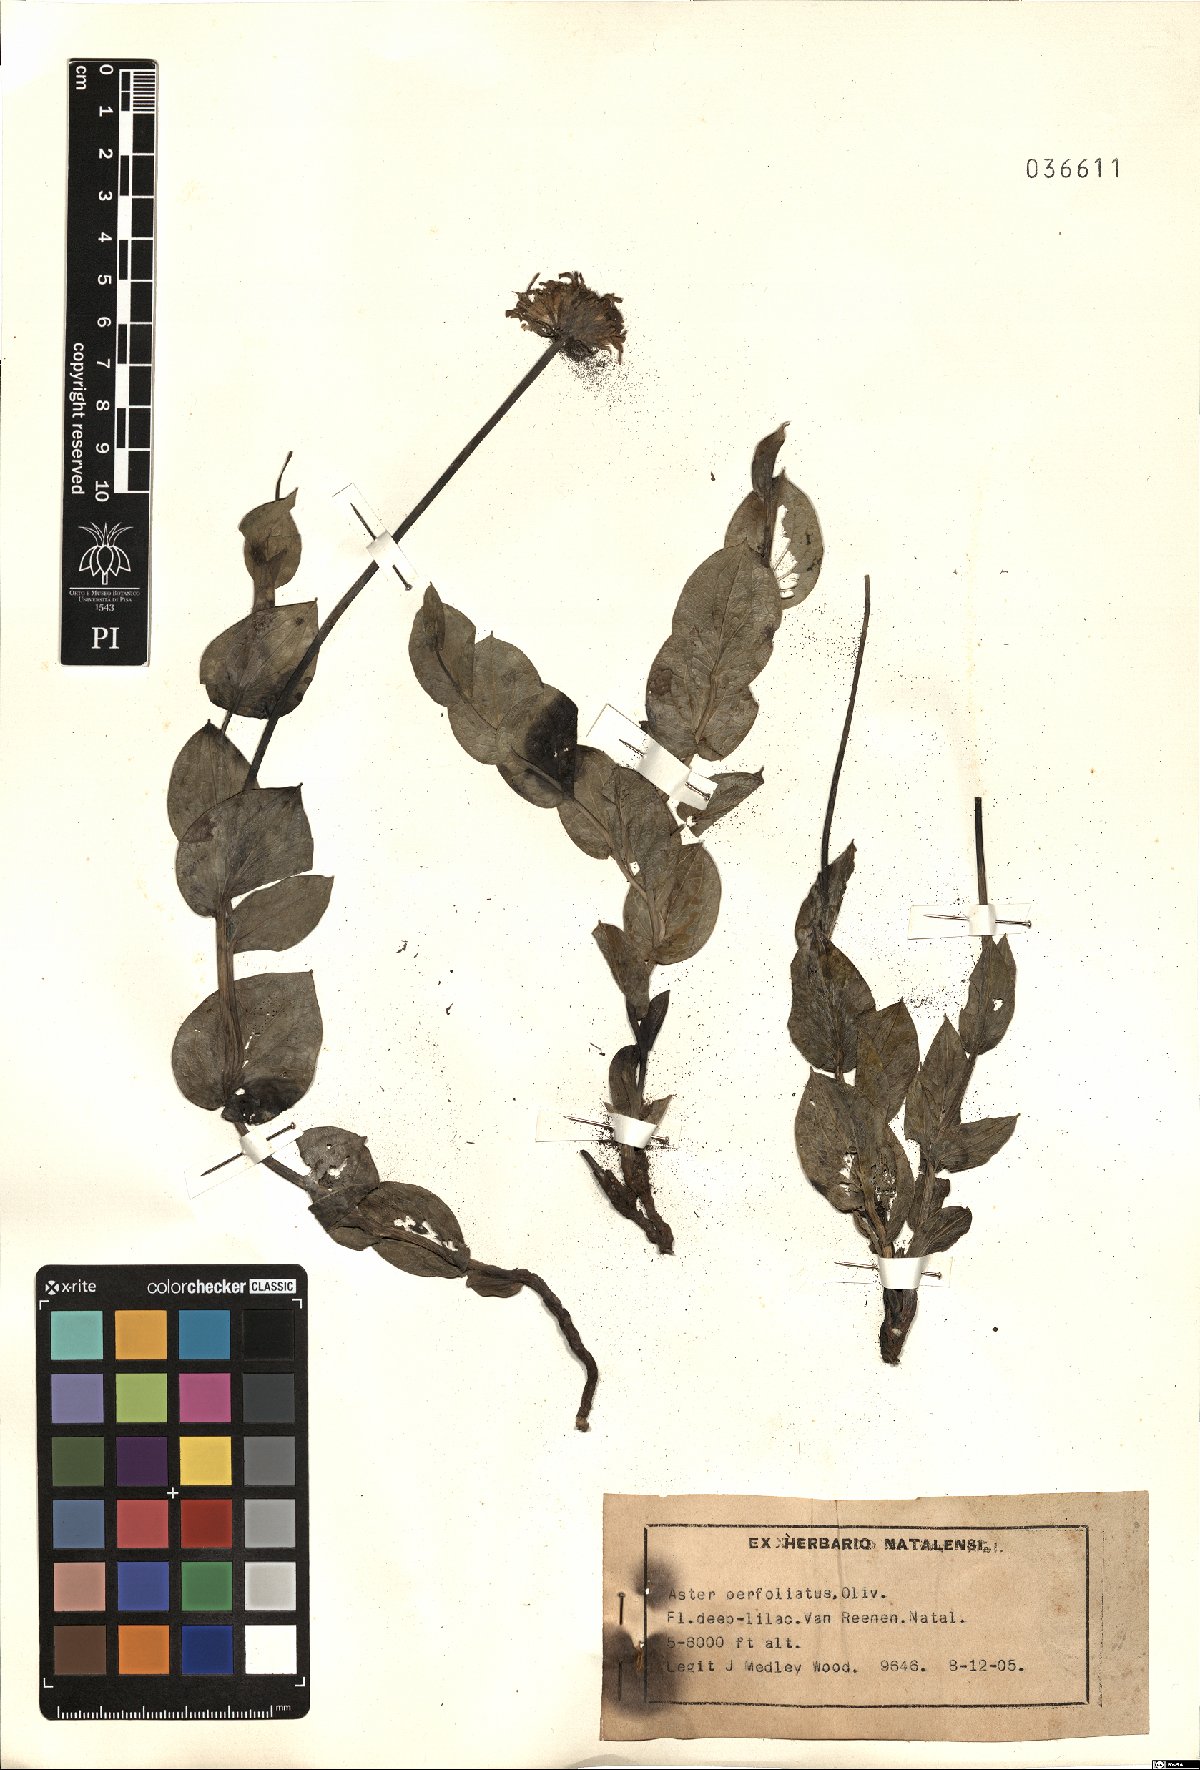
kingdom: Plantae
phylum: Tracheophyta
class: Magnoliopsida
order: Asterales
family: Asteraceae
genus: Afroaster
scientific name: Afroaster perfoliatus
